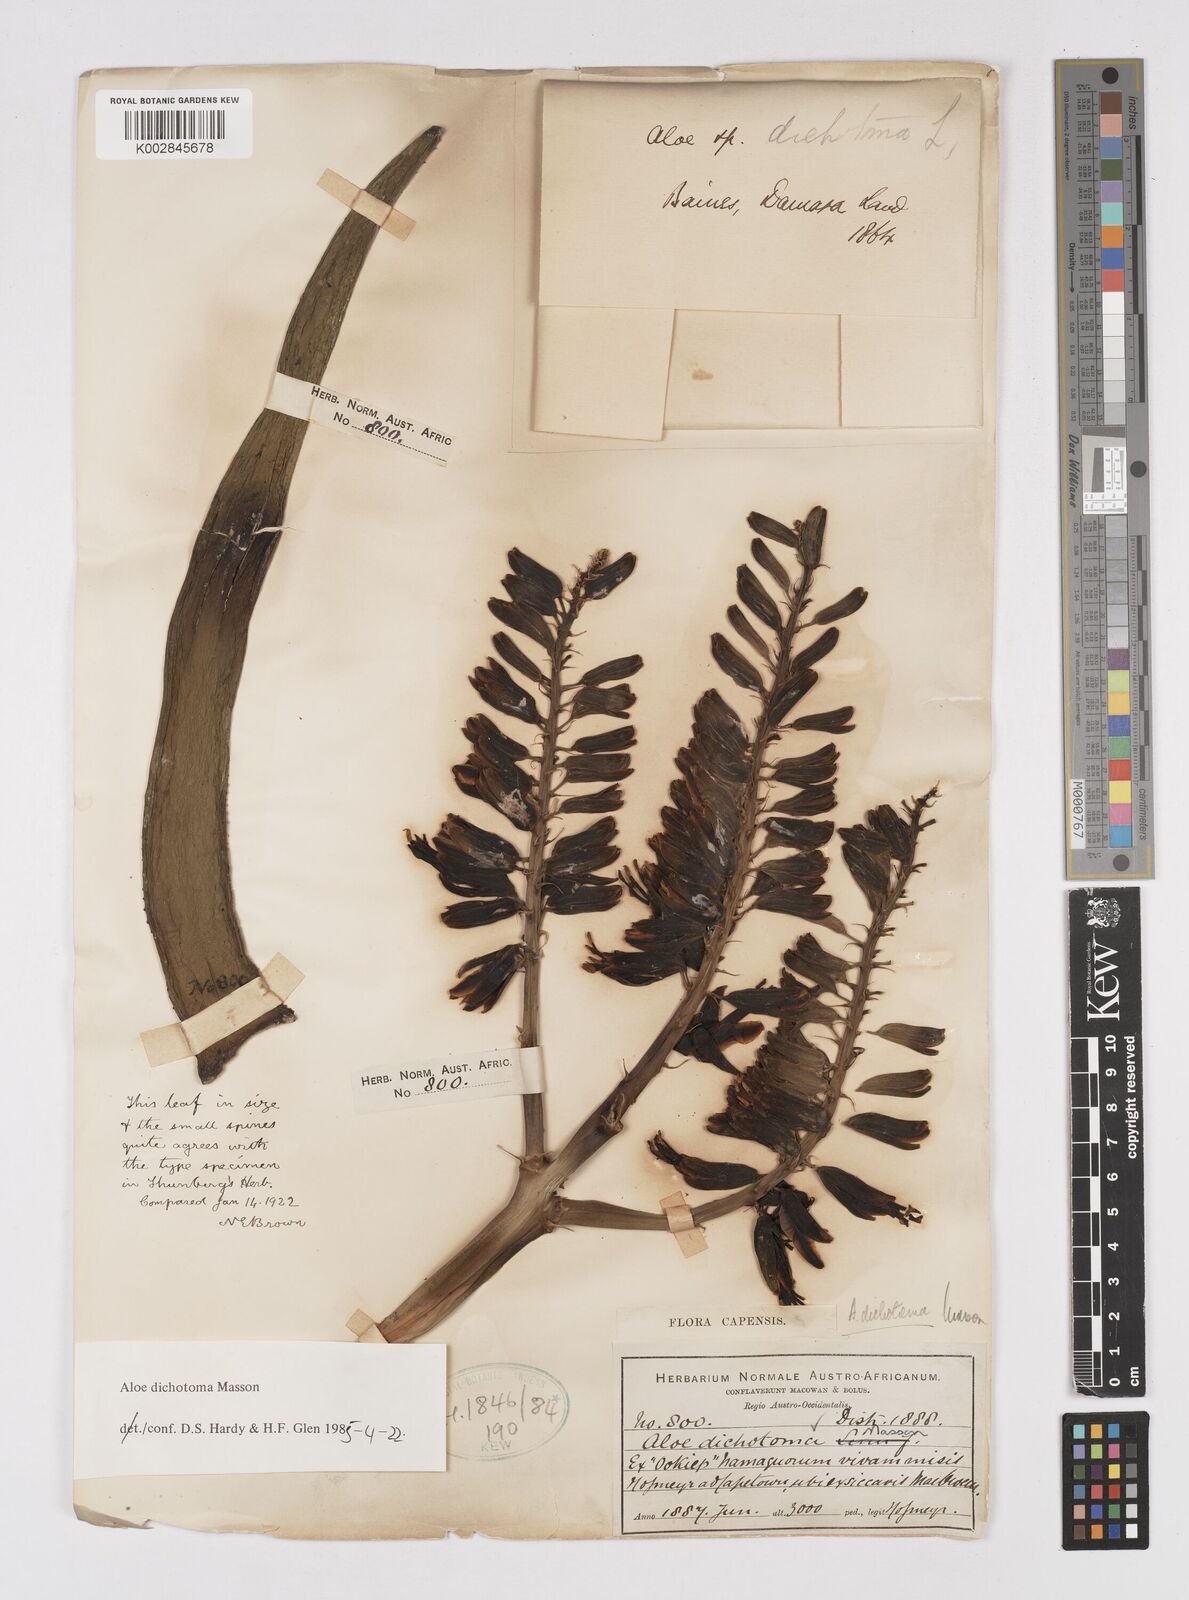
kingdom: Plantae
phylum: Tracheophyta
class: Liliopsida
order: Asparagales
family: Asphodelaceae
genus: Aloidendron
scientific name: Aloidendron dichotomum
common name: Quiver tree
